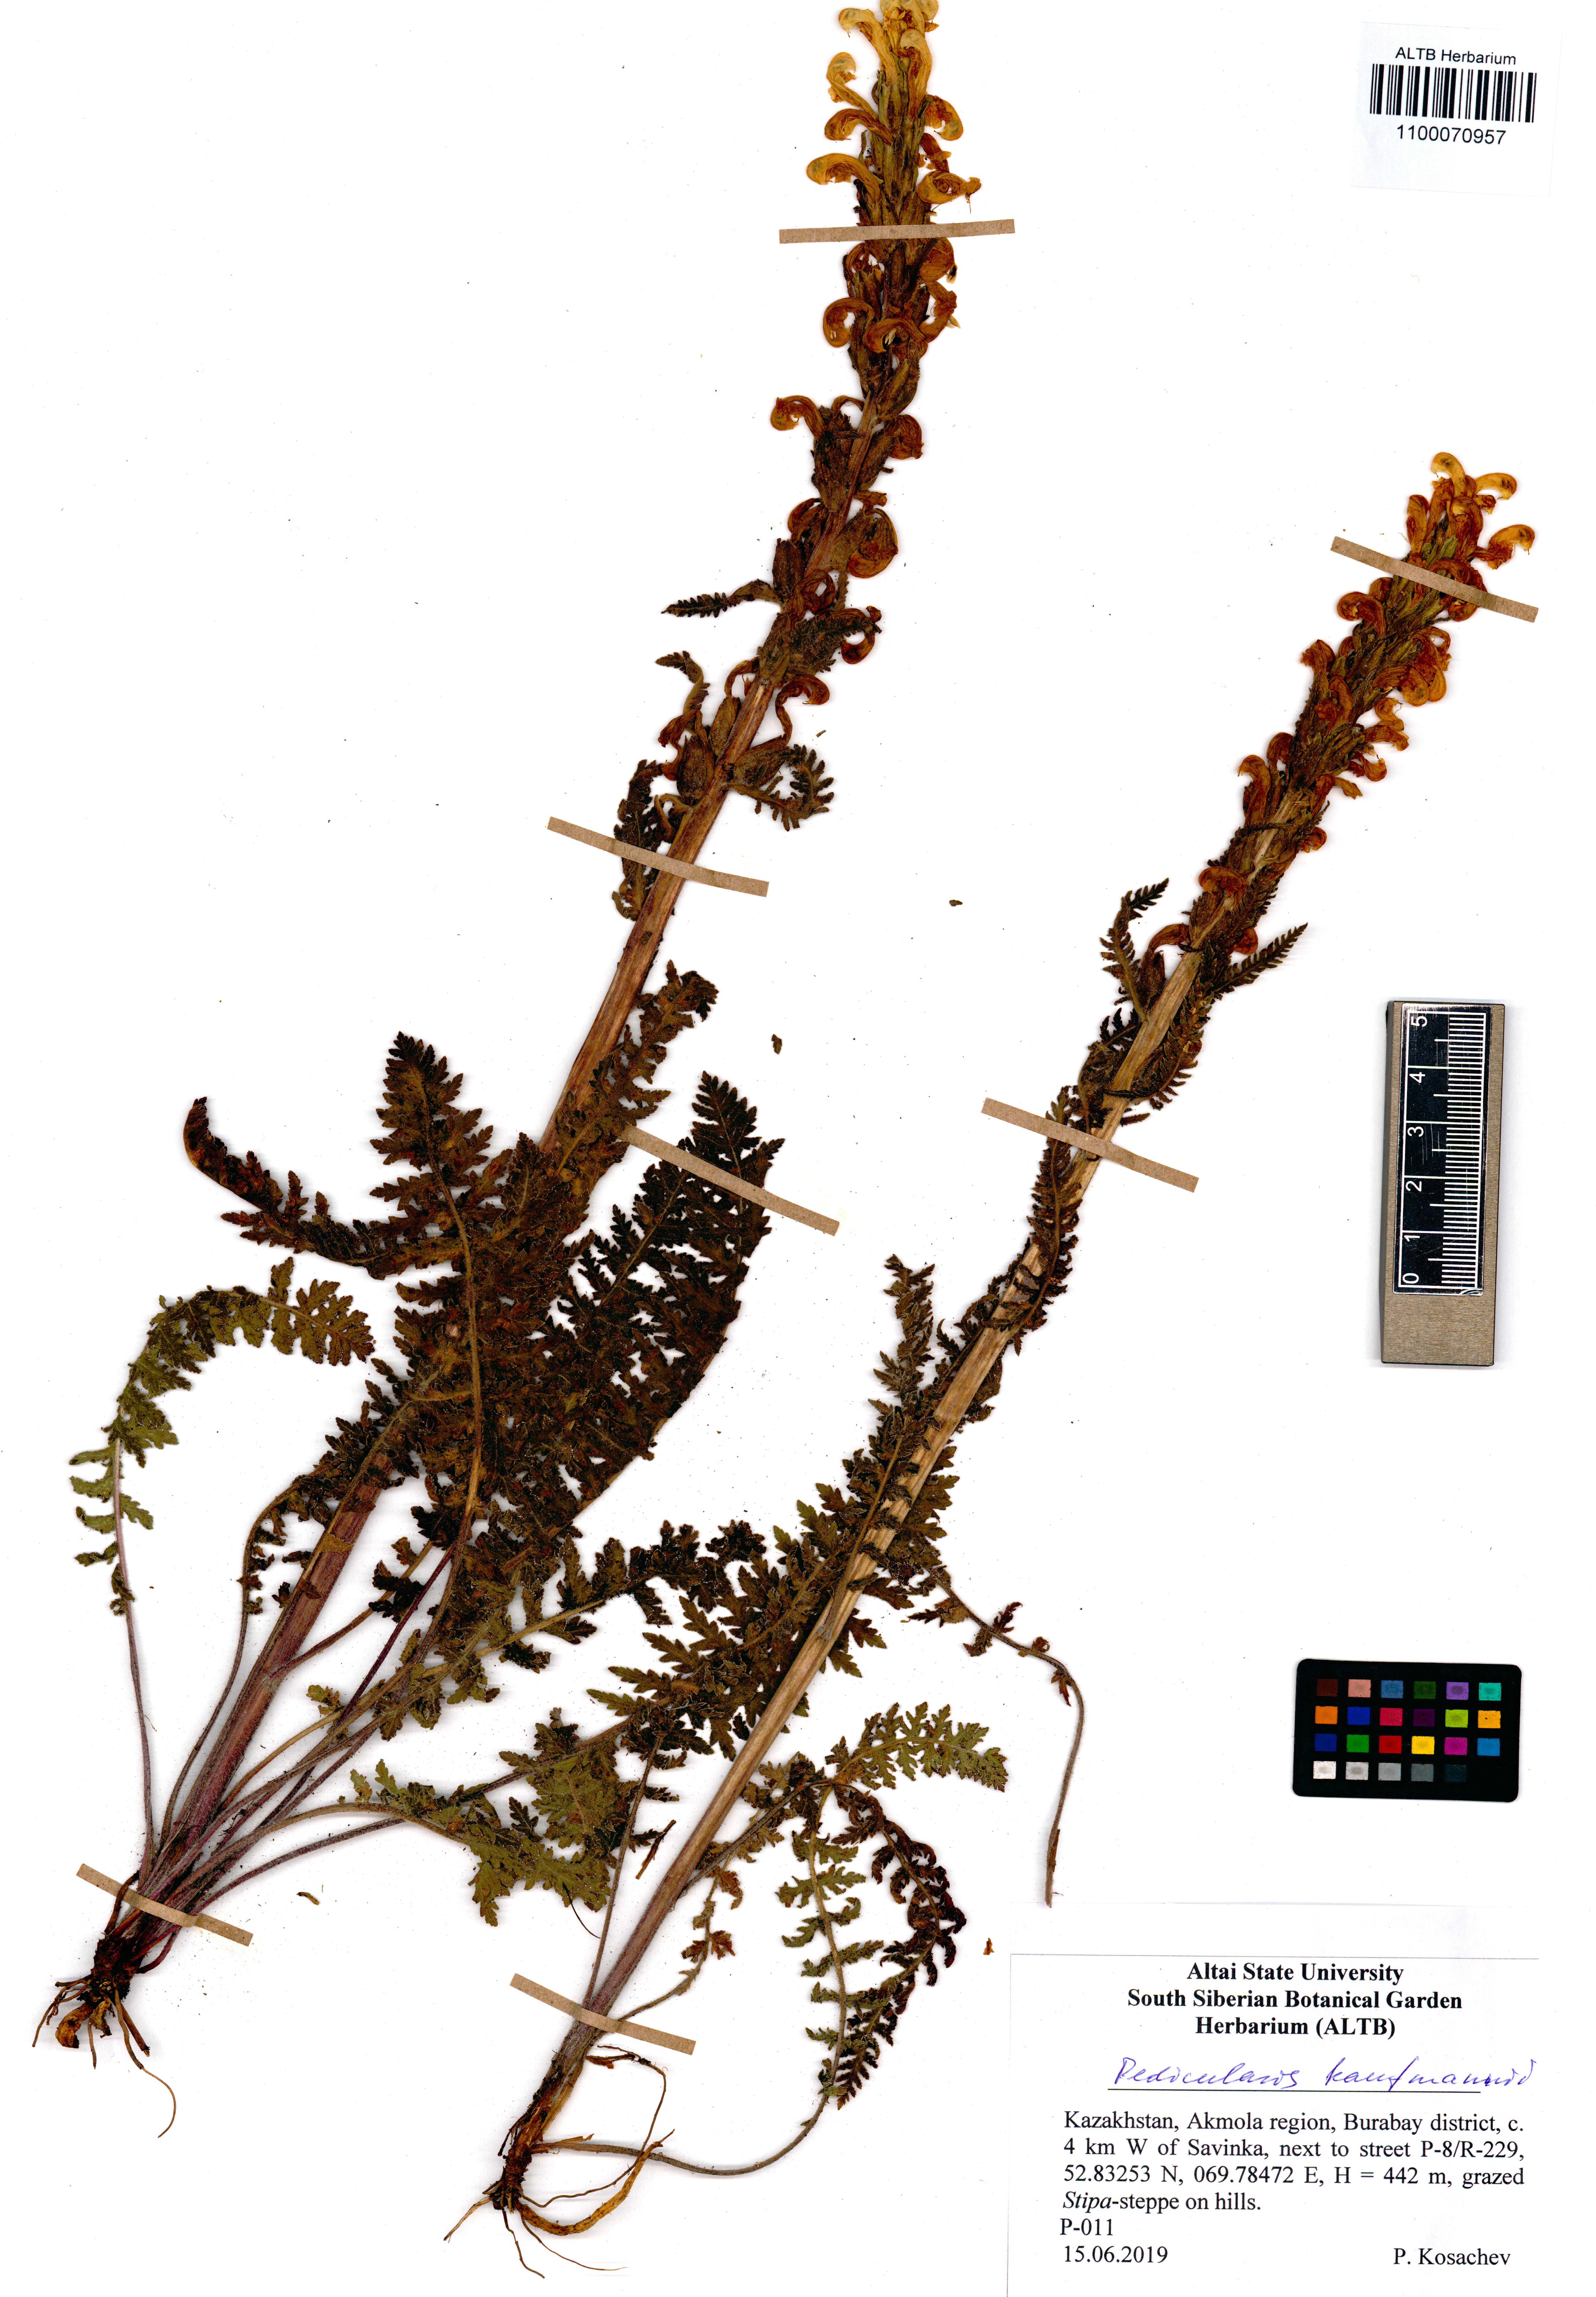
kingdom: Plantae
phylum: Tracheophyta
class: Magnoliopsida
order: Lamiales
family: Orobanchaceae
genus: Pedicularis
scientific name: Pedicularis kaufmannii
